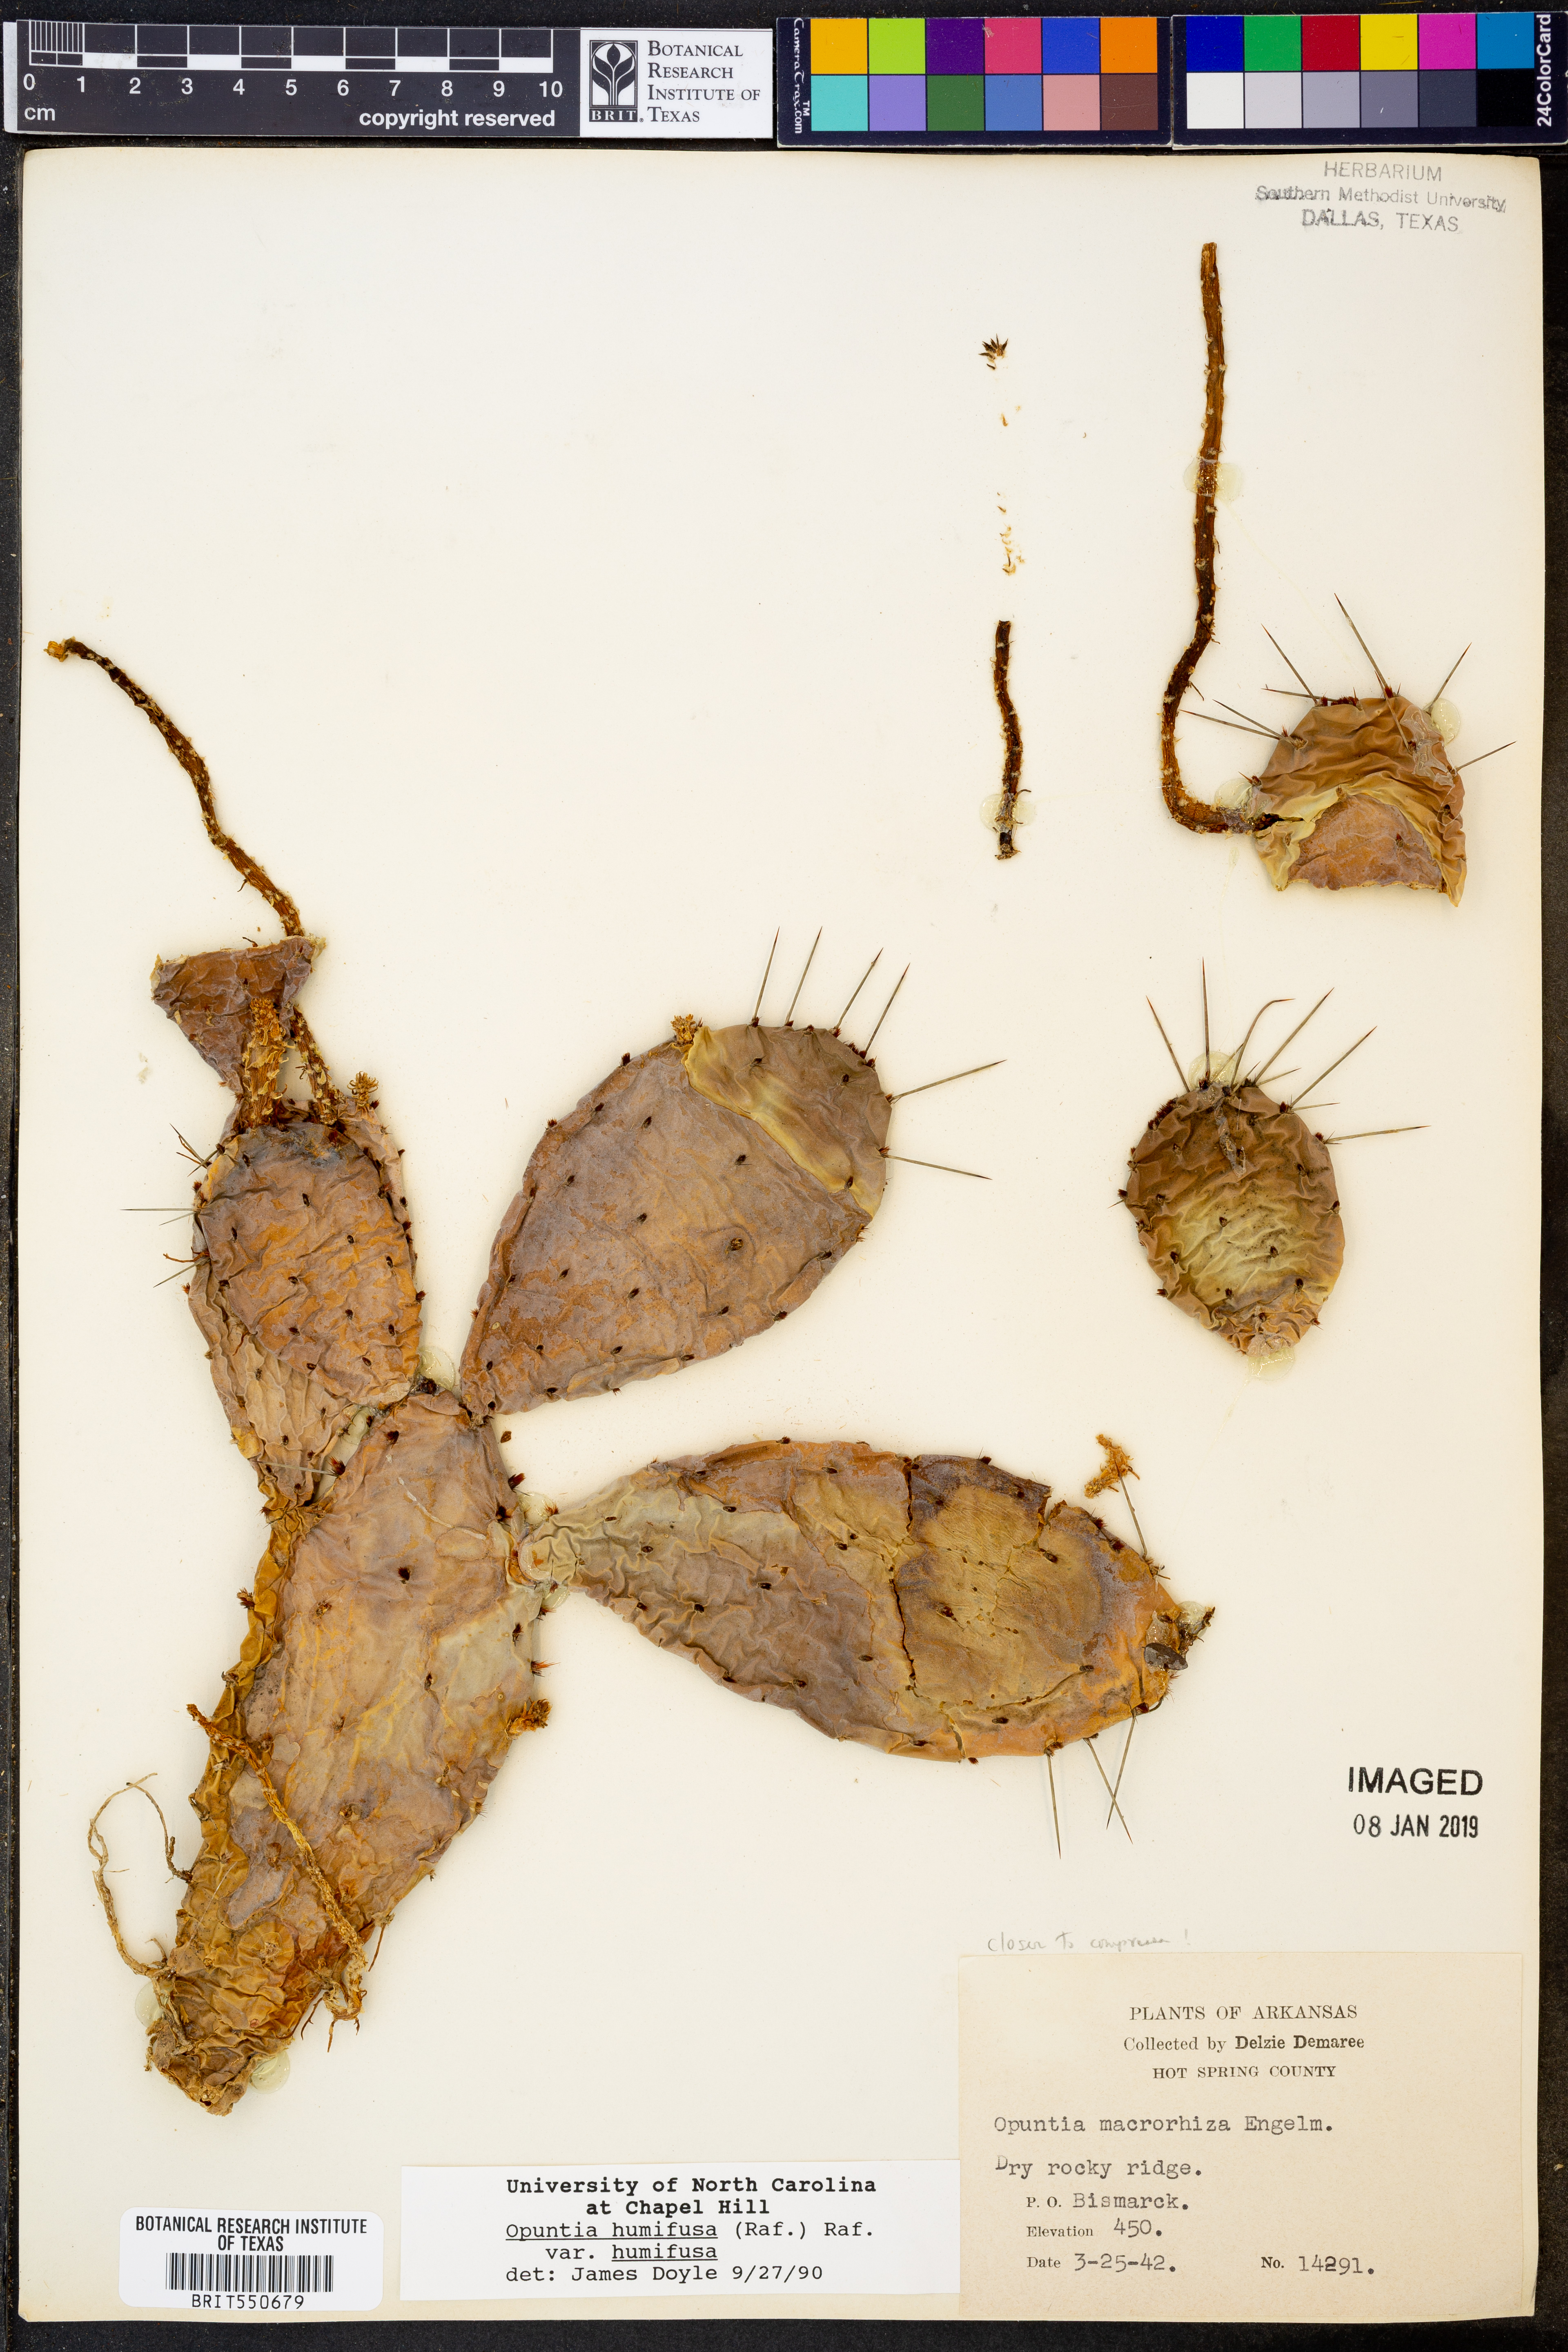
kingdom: Plantae
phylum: Tracheophyta
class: Magnoliopsida
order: Caryophyllales
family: Cactaceae
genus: Opuntia
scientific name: Opuntia humifusa
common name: Eastern prickly-pear
